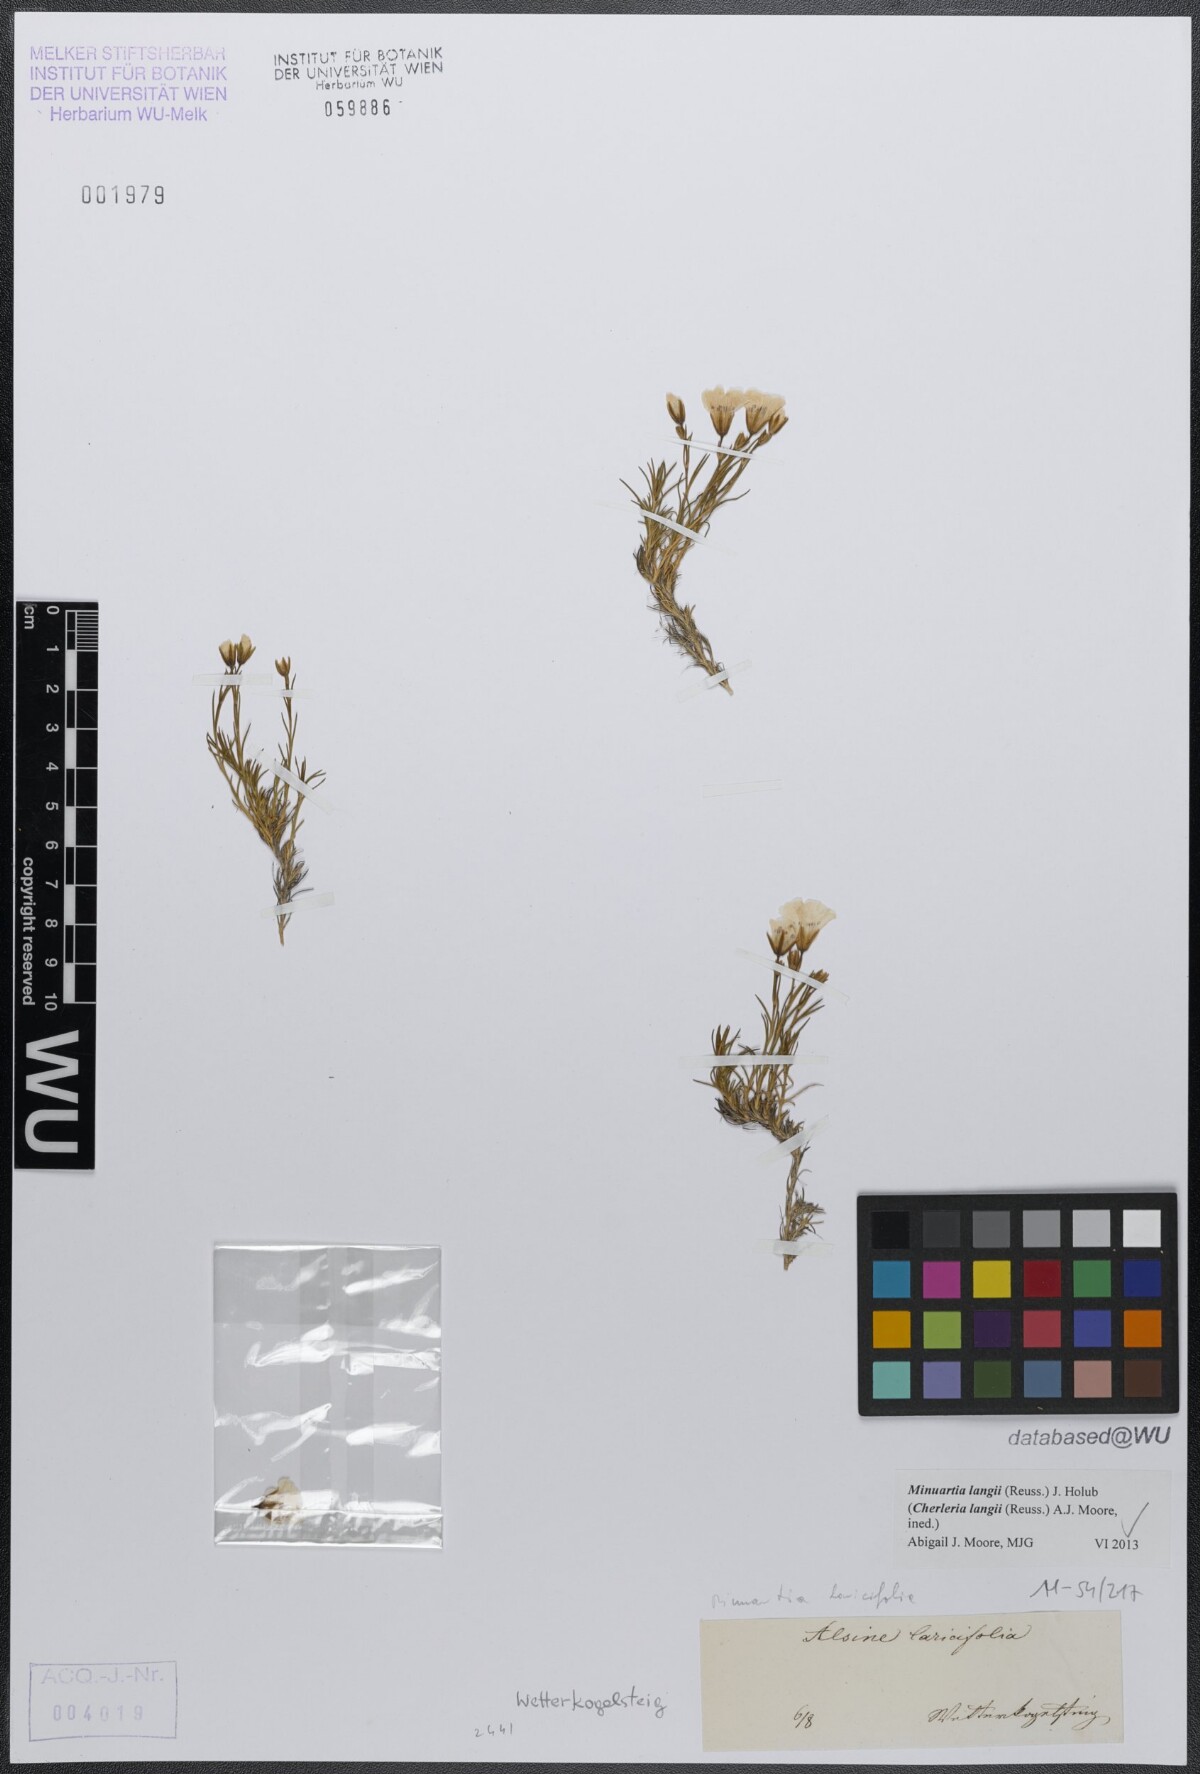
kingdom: Plantae
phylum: Tracheophyta
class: Magnoliopsida
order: Caryophyllales
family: Caryophyllaceae
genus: Cherleria
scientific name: Cherleria langii
